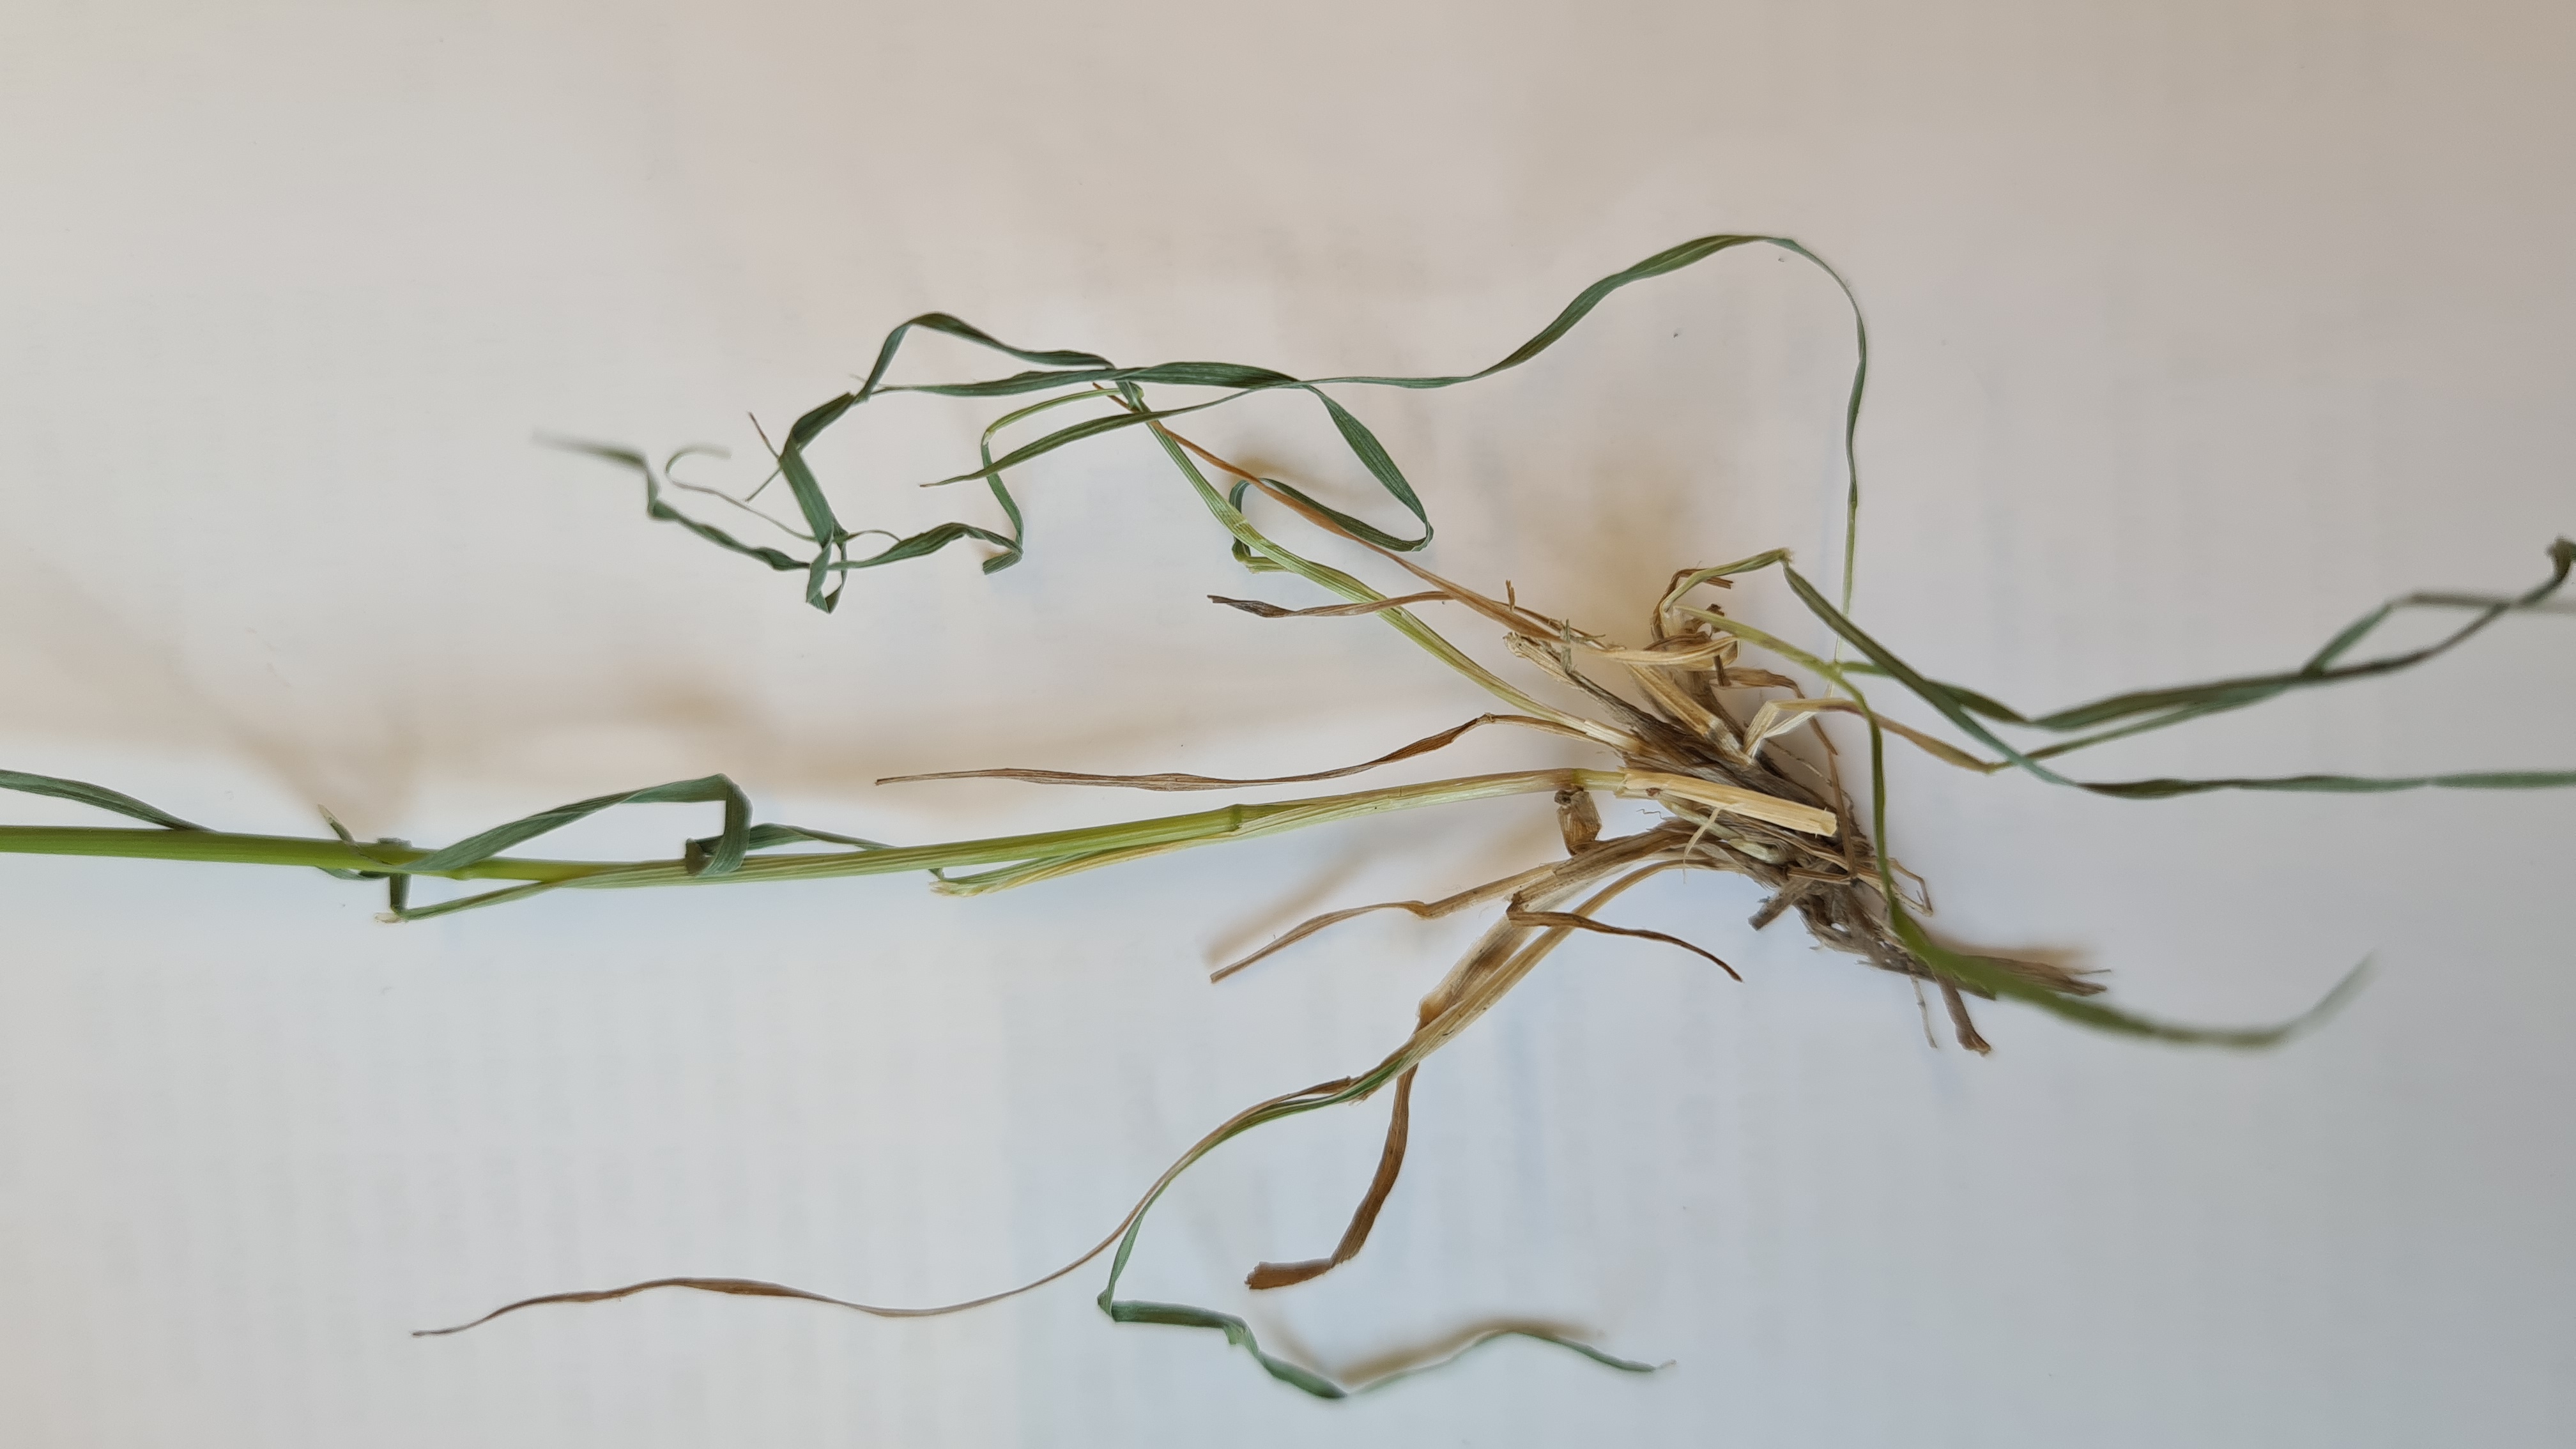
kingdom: Plantae
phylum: Tracheophyta
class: Liliopsida
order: Poales
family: Poaceae
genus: Agrostis
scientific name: Agrostis stolonifera
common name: Kryb-hvene
